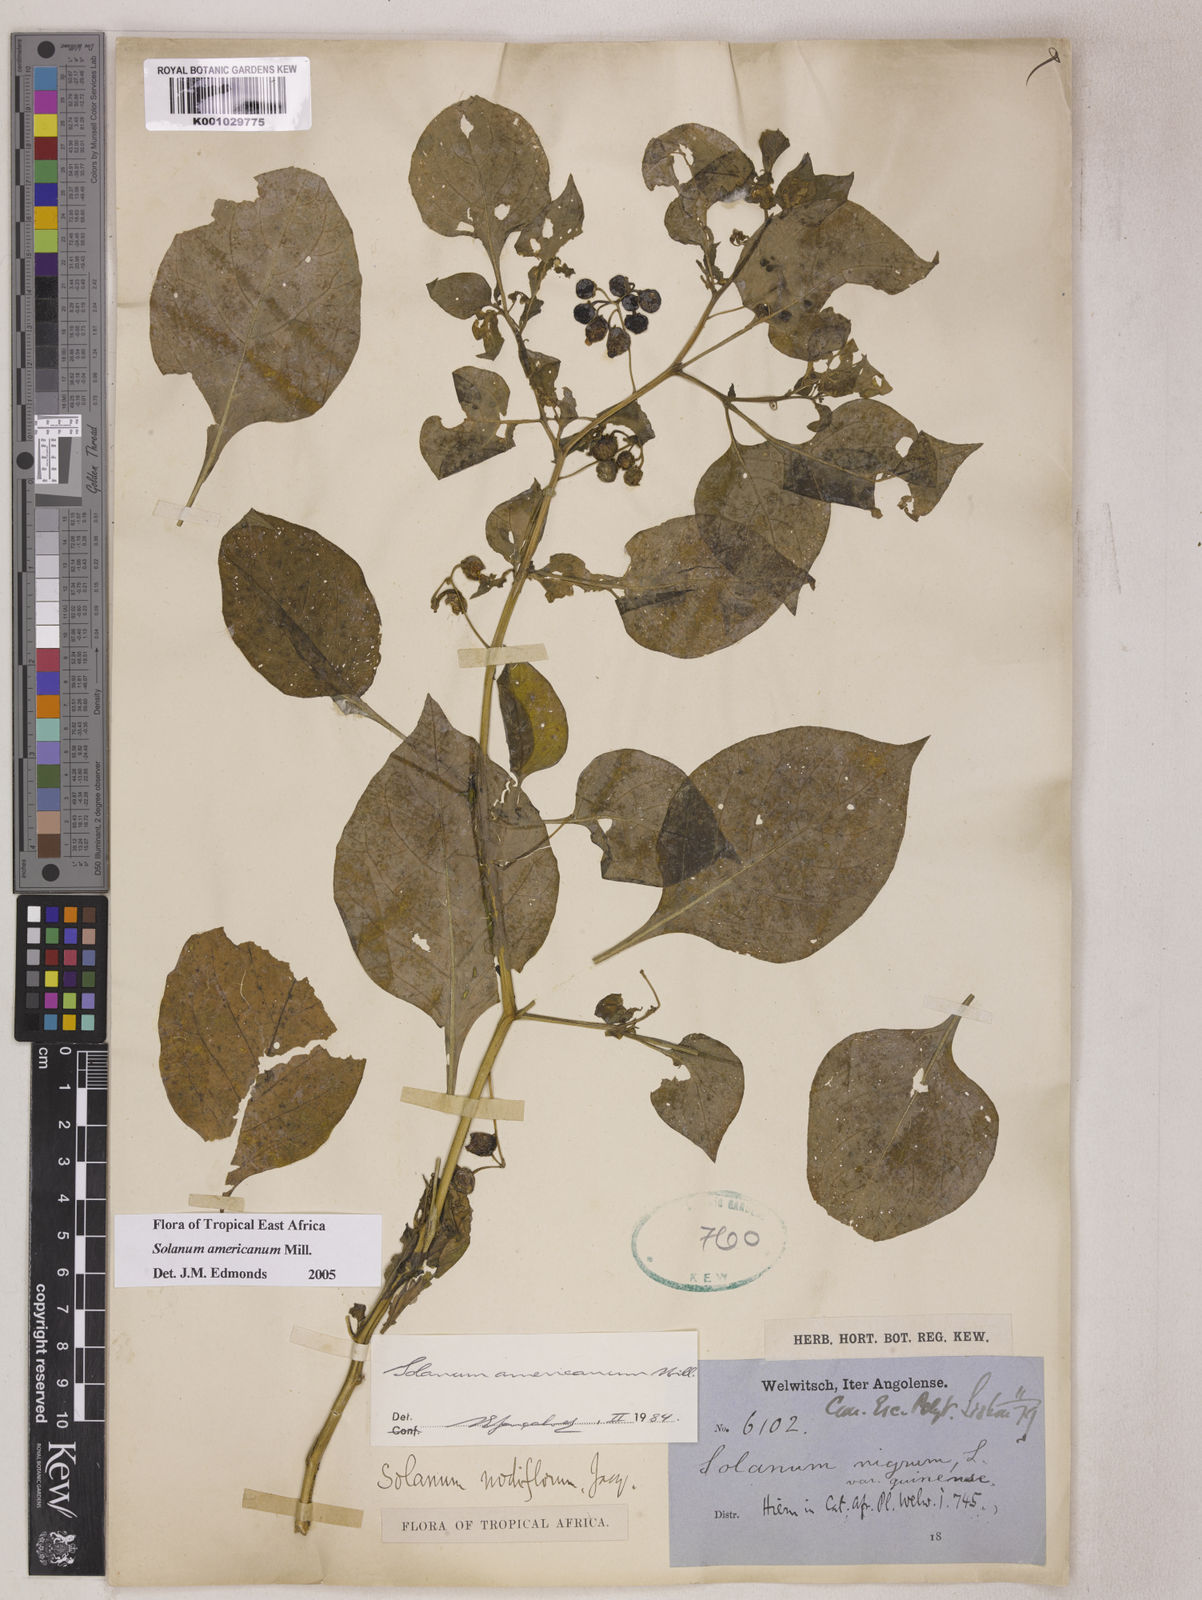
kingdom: Plantae
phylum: Tracheophyta
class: Magnoliopsida
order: Solanales
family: Solanaceae
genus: Solanum
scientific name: Solanum americanum
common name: American black nightshade
